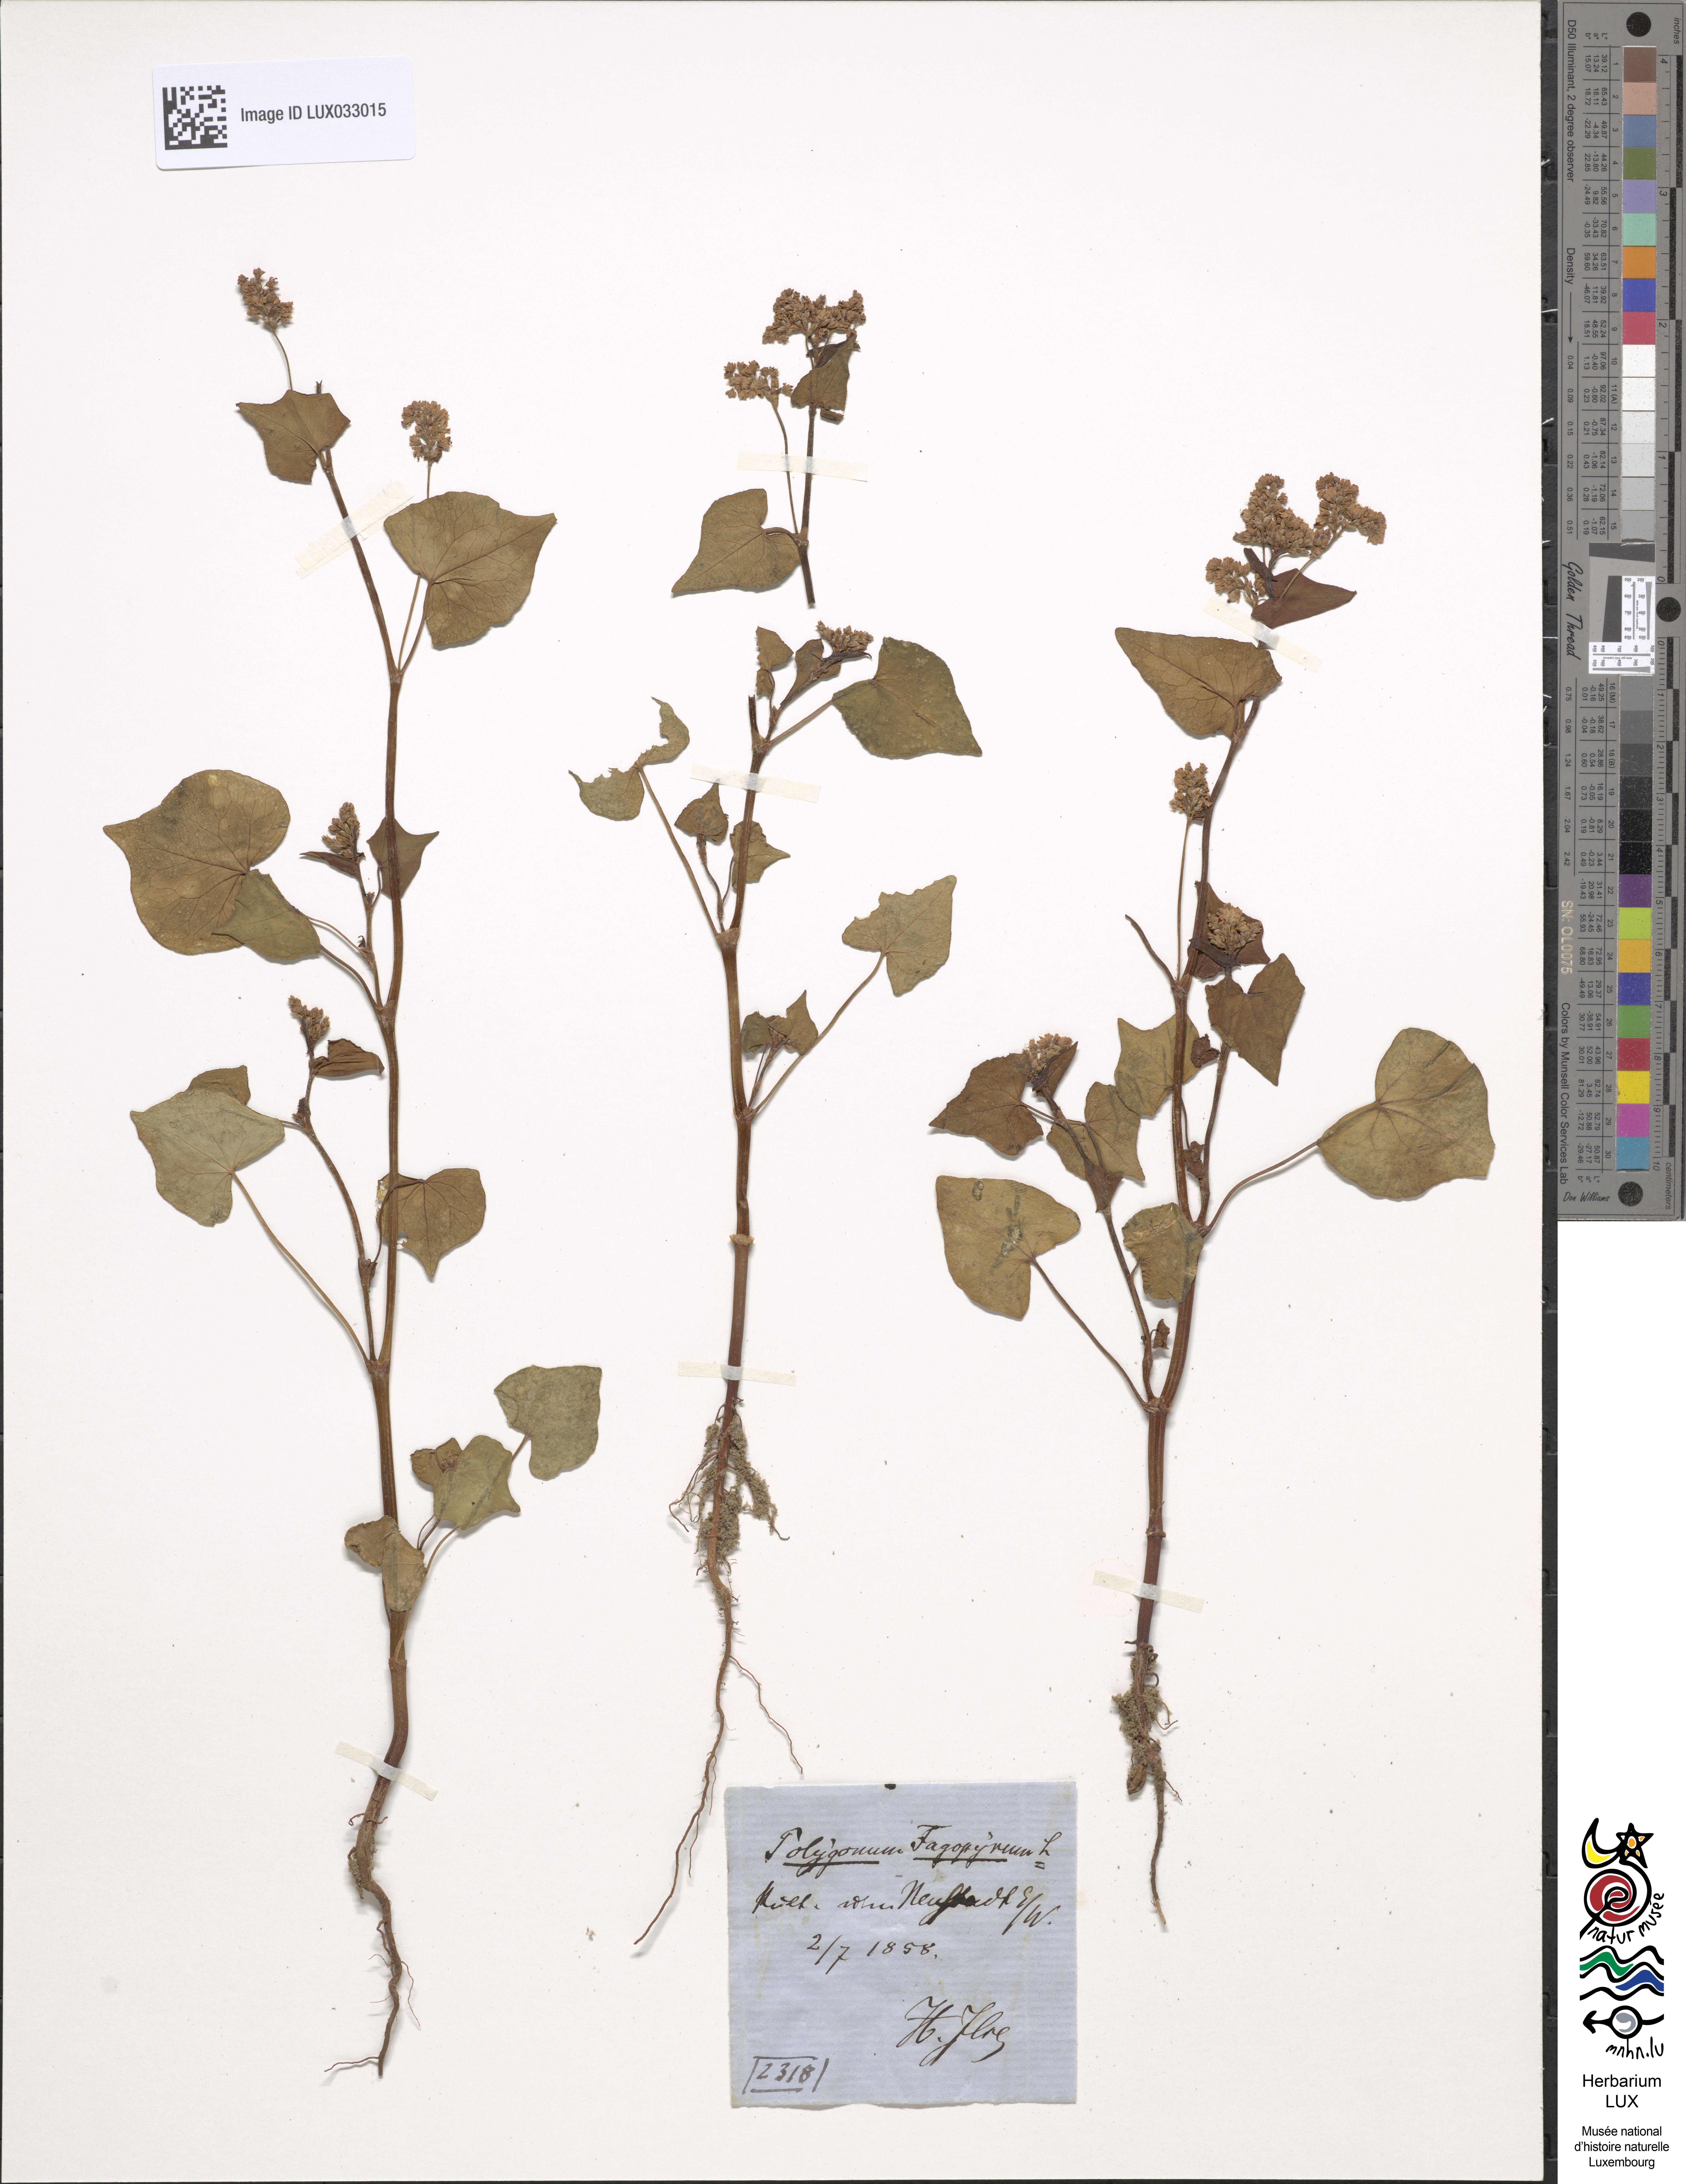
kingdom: Plantae
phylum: Tracheophyta
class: Magnoliopsida
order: Caryophyllales
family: Polygonaceae
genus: Fagopyrum
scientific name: Fagopyrum esculentum
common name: Buckwheat
